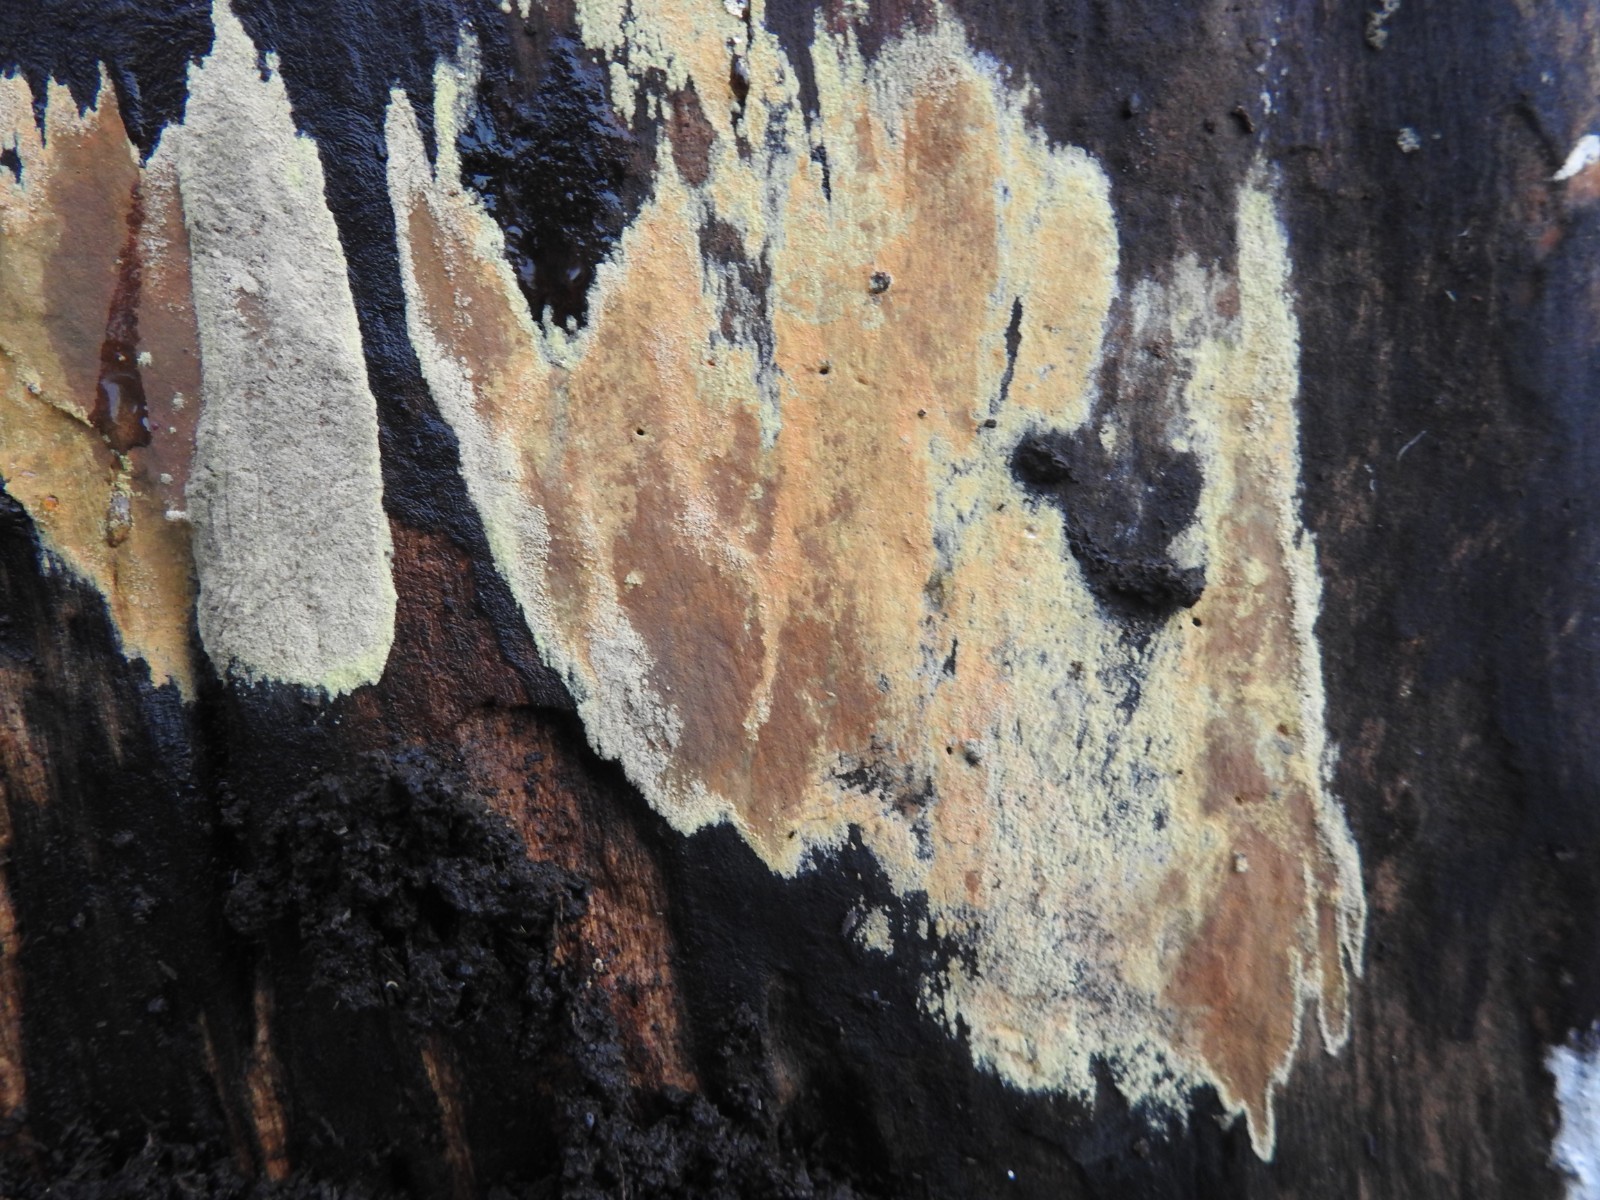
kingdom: Fungi
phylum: Ascomycota
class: Sordariomycetes
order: Xylariales
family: Hypoxylaceae
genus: Hypoxylon
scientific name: Hypoxylon
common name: kulbær
